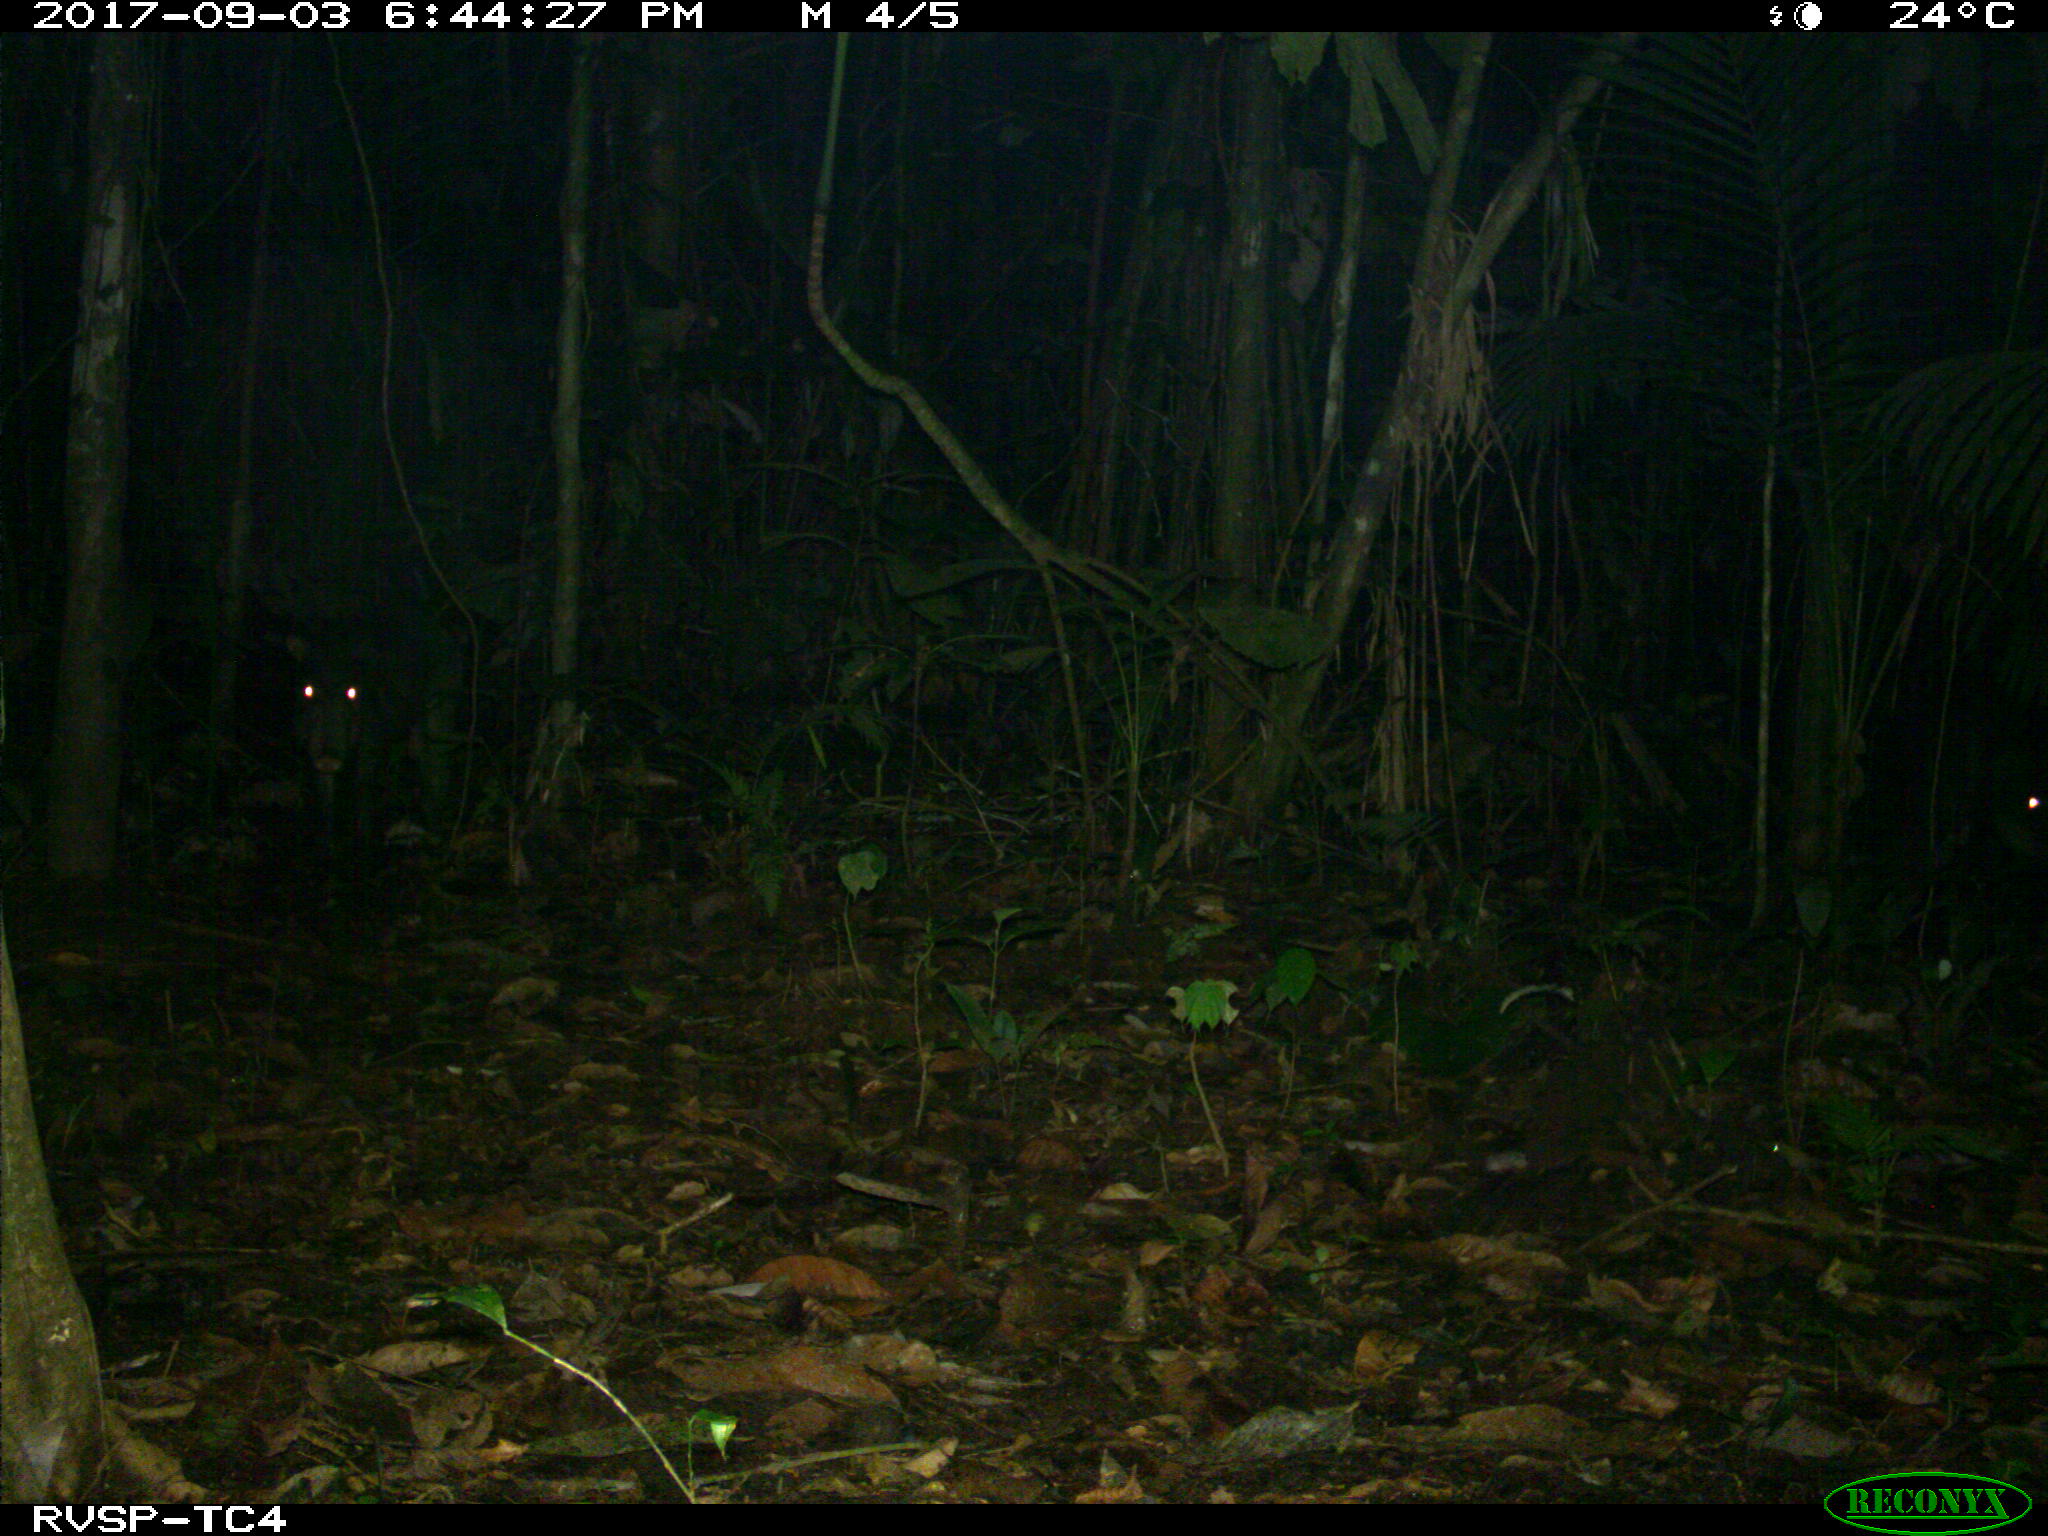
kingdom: Animalia
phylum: Chordata
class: Mammalia
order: Artiodactyla
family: Tayassuidae
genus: Tayassu
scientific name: Tayassu pecari
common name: White-lipped peccary
